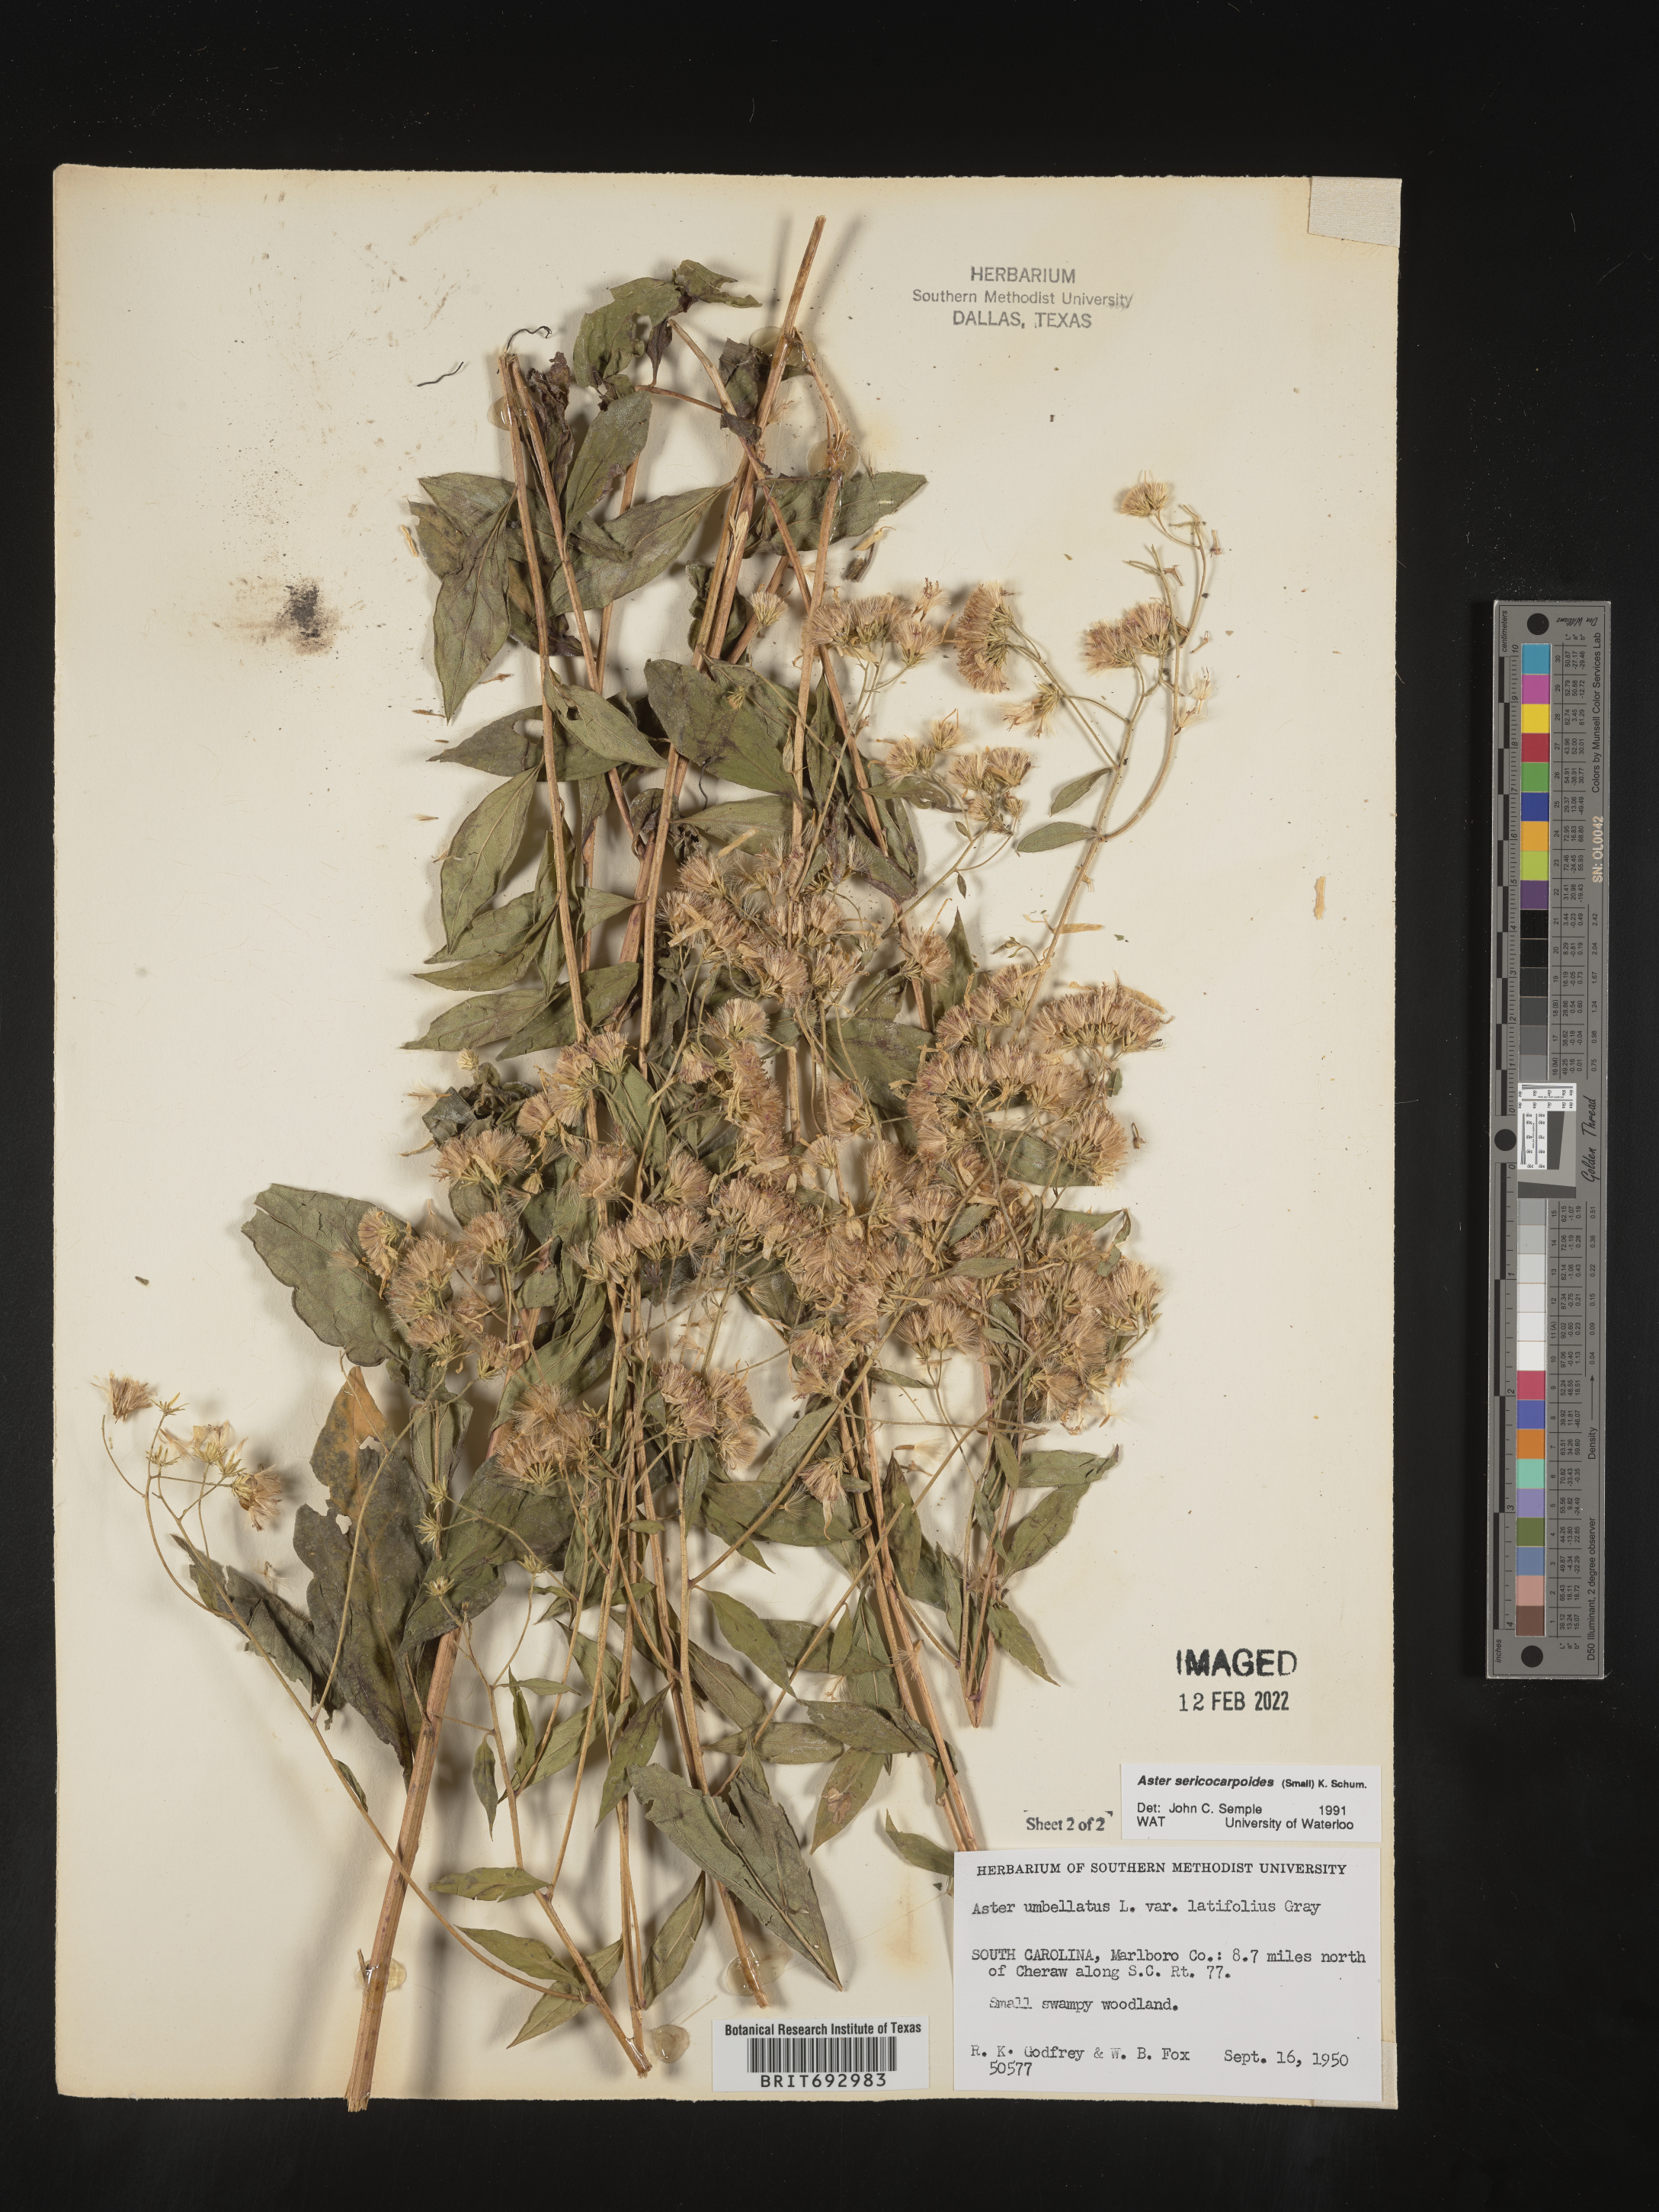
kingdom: Plantae
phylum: Tracheophyta
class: Magnoliopsida
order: Asterales
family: Asteraceae
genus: Doellingeria
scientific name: Doellingeria sericocarpoides
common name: Southern tall flat-top aster
